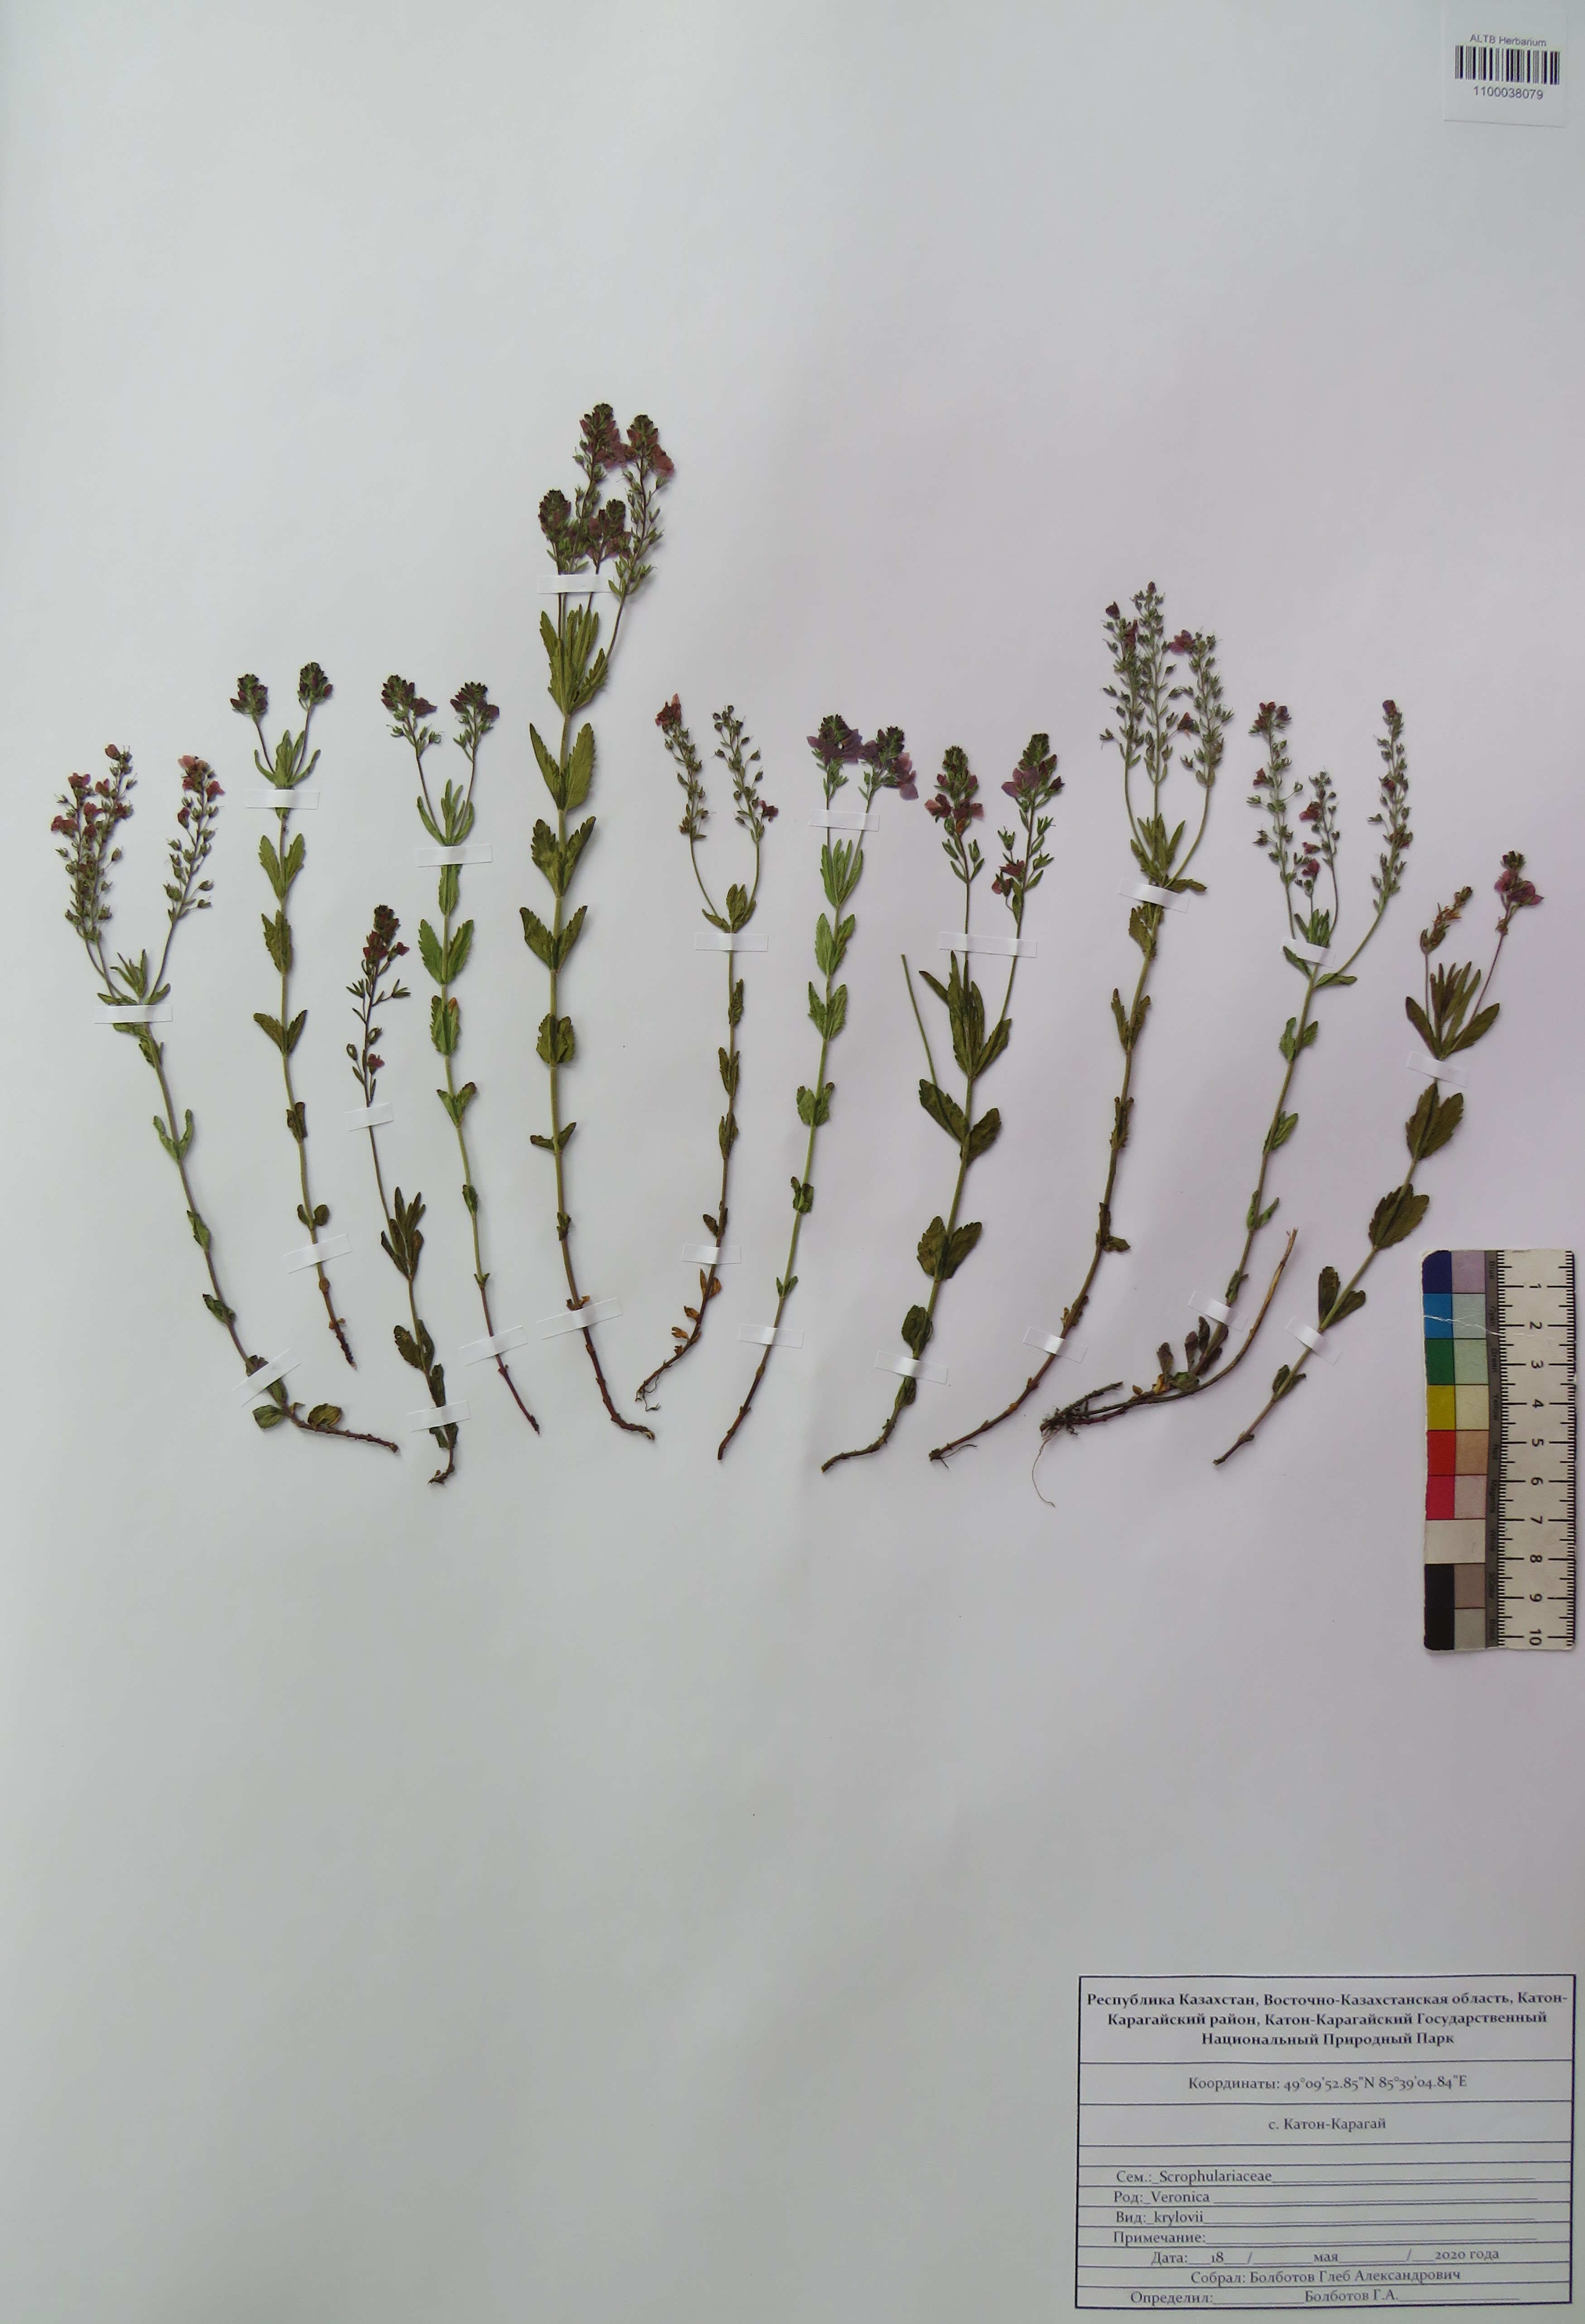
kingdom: Plantae
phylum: Tracheophyta
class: Magnoliopsida
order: Lamiales
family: Plantaginaceae
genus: Veronica
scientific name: Veronica krylovii
